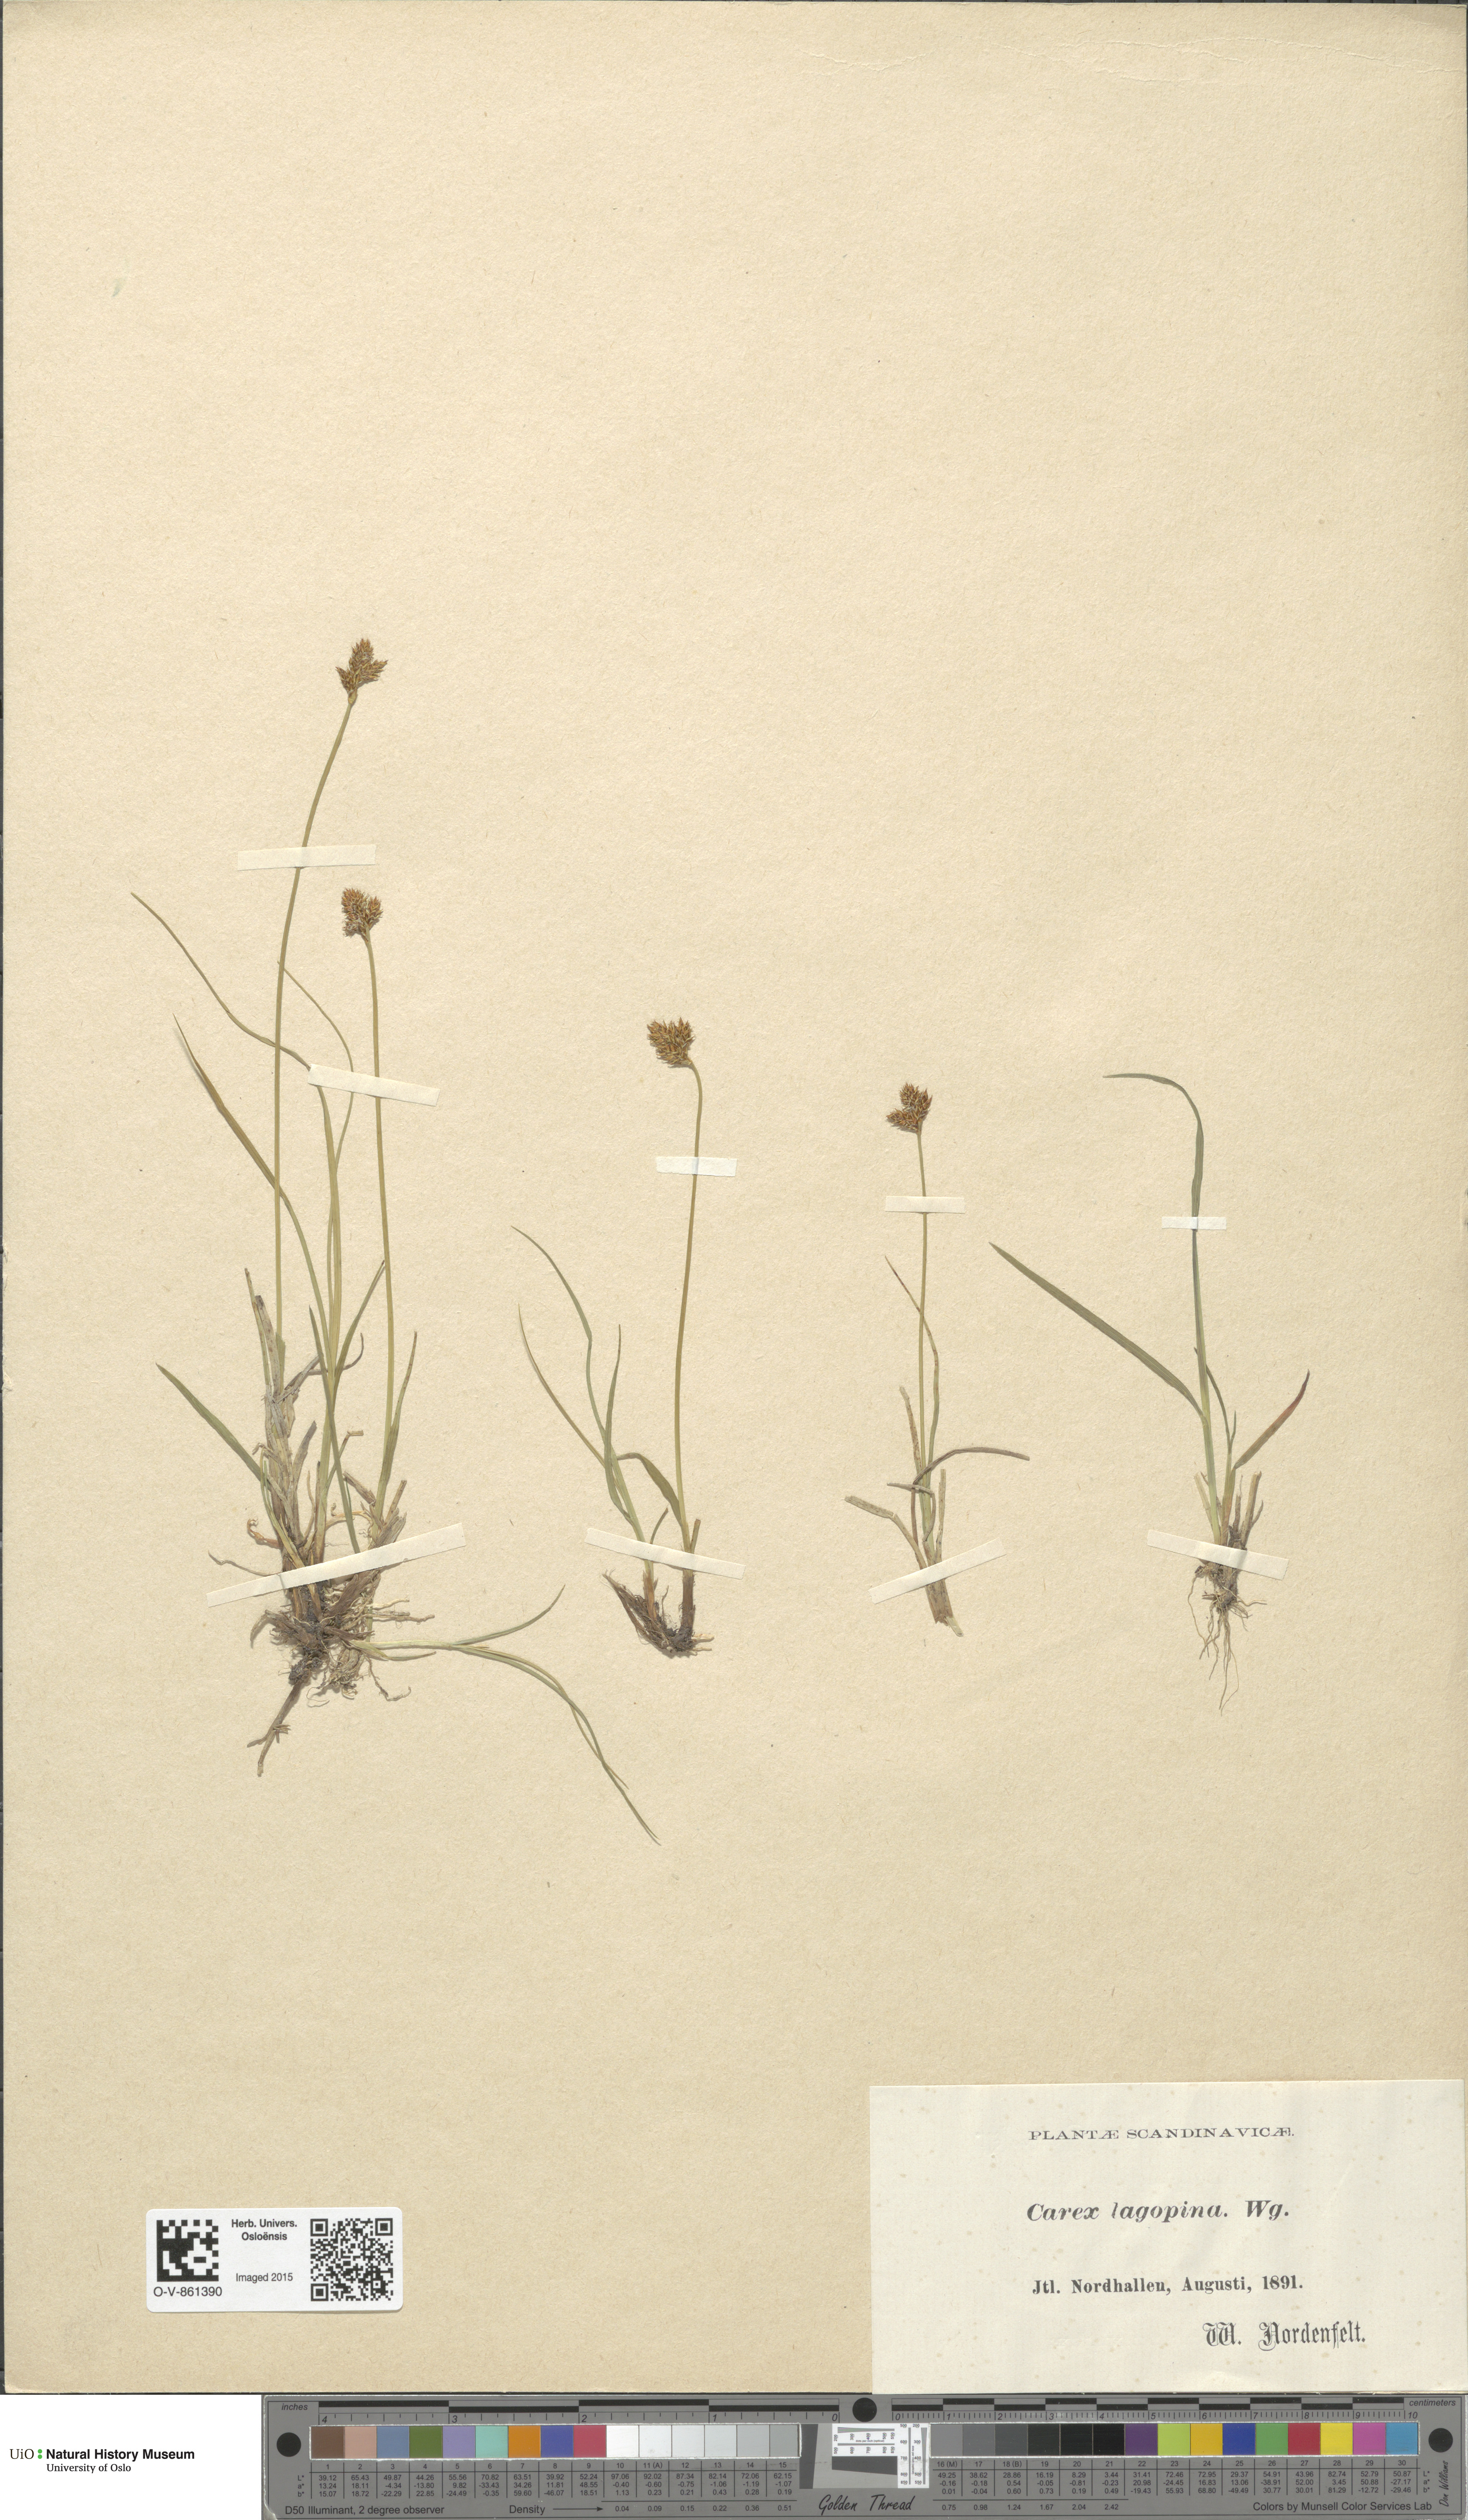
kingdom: Plantae
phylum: Tracheophyta
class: Liliopsida
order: Poales
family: Cyperaceae
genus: Carex
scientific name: Carex lachenalii
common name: Hare's-foot sedge
